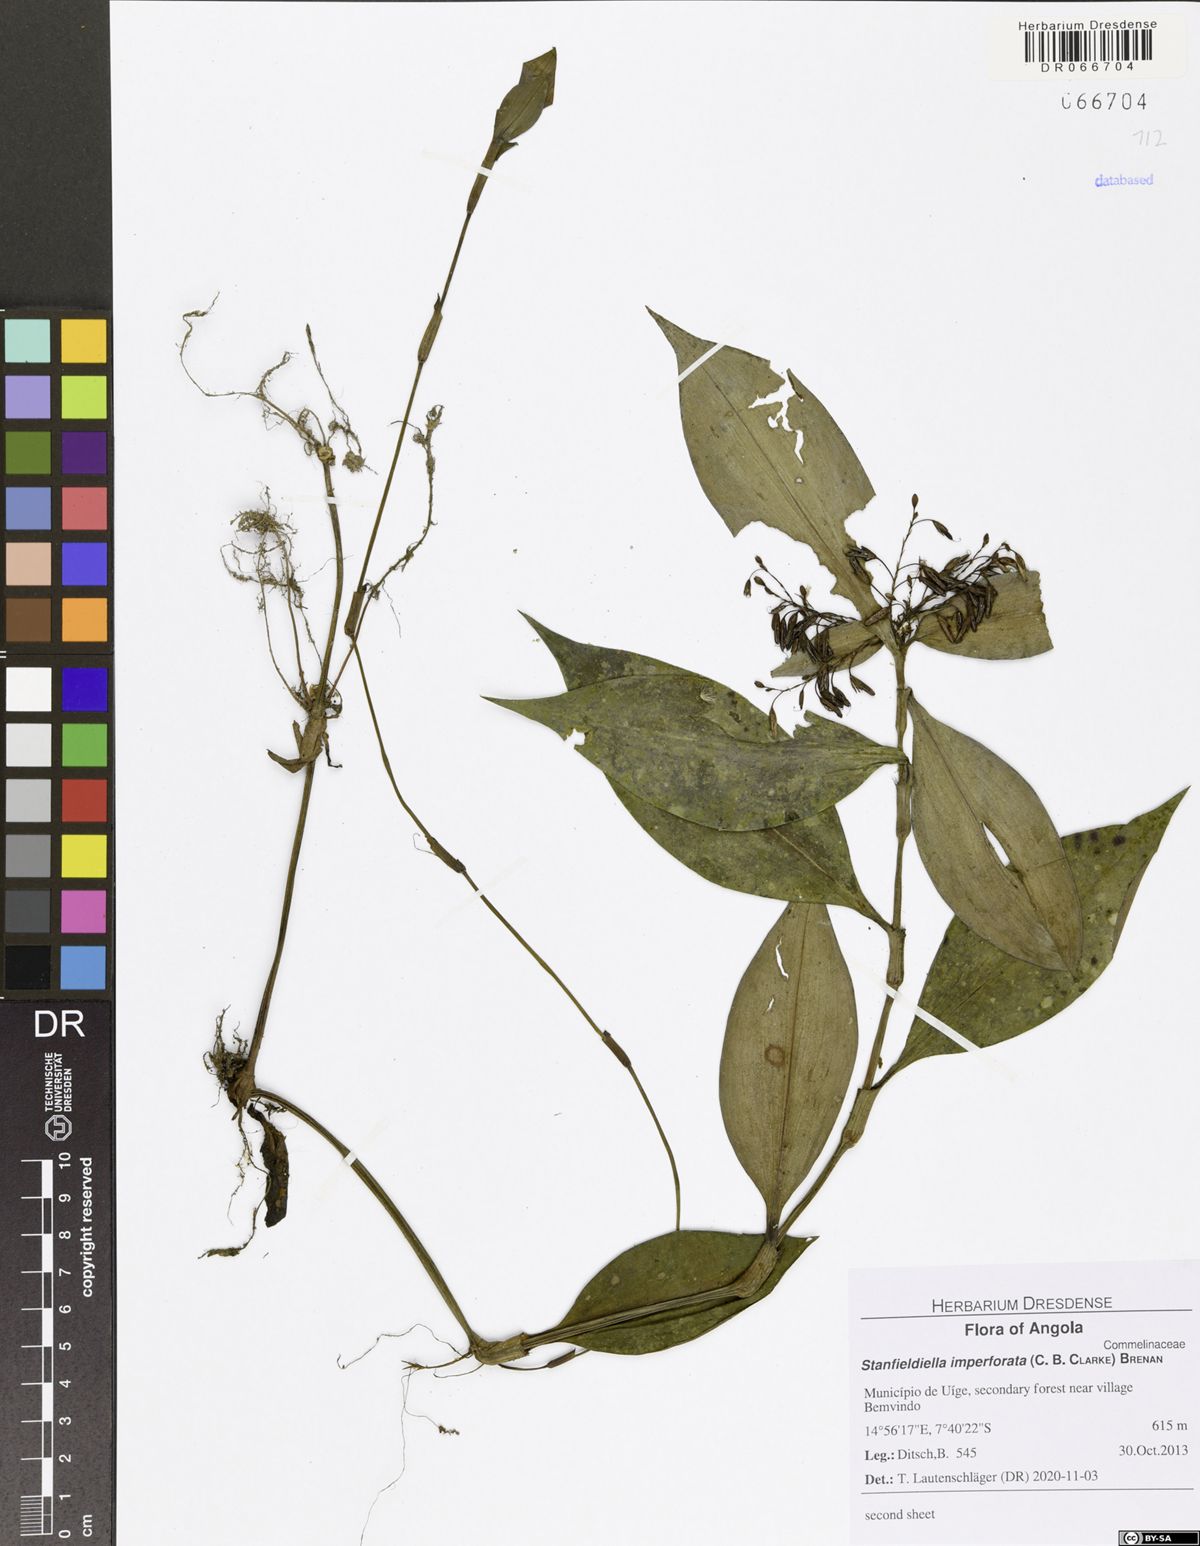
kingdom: Plantae
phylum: Tracheophyta
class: Liliopsida
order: Commelinales
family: Commelinaceae
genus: Stanfieldiella
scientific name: Stanfieldiella imperforata
